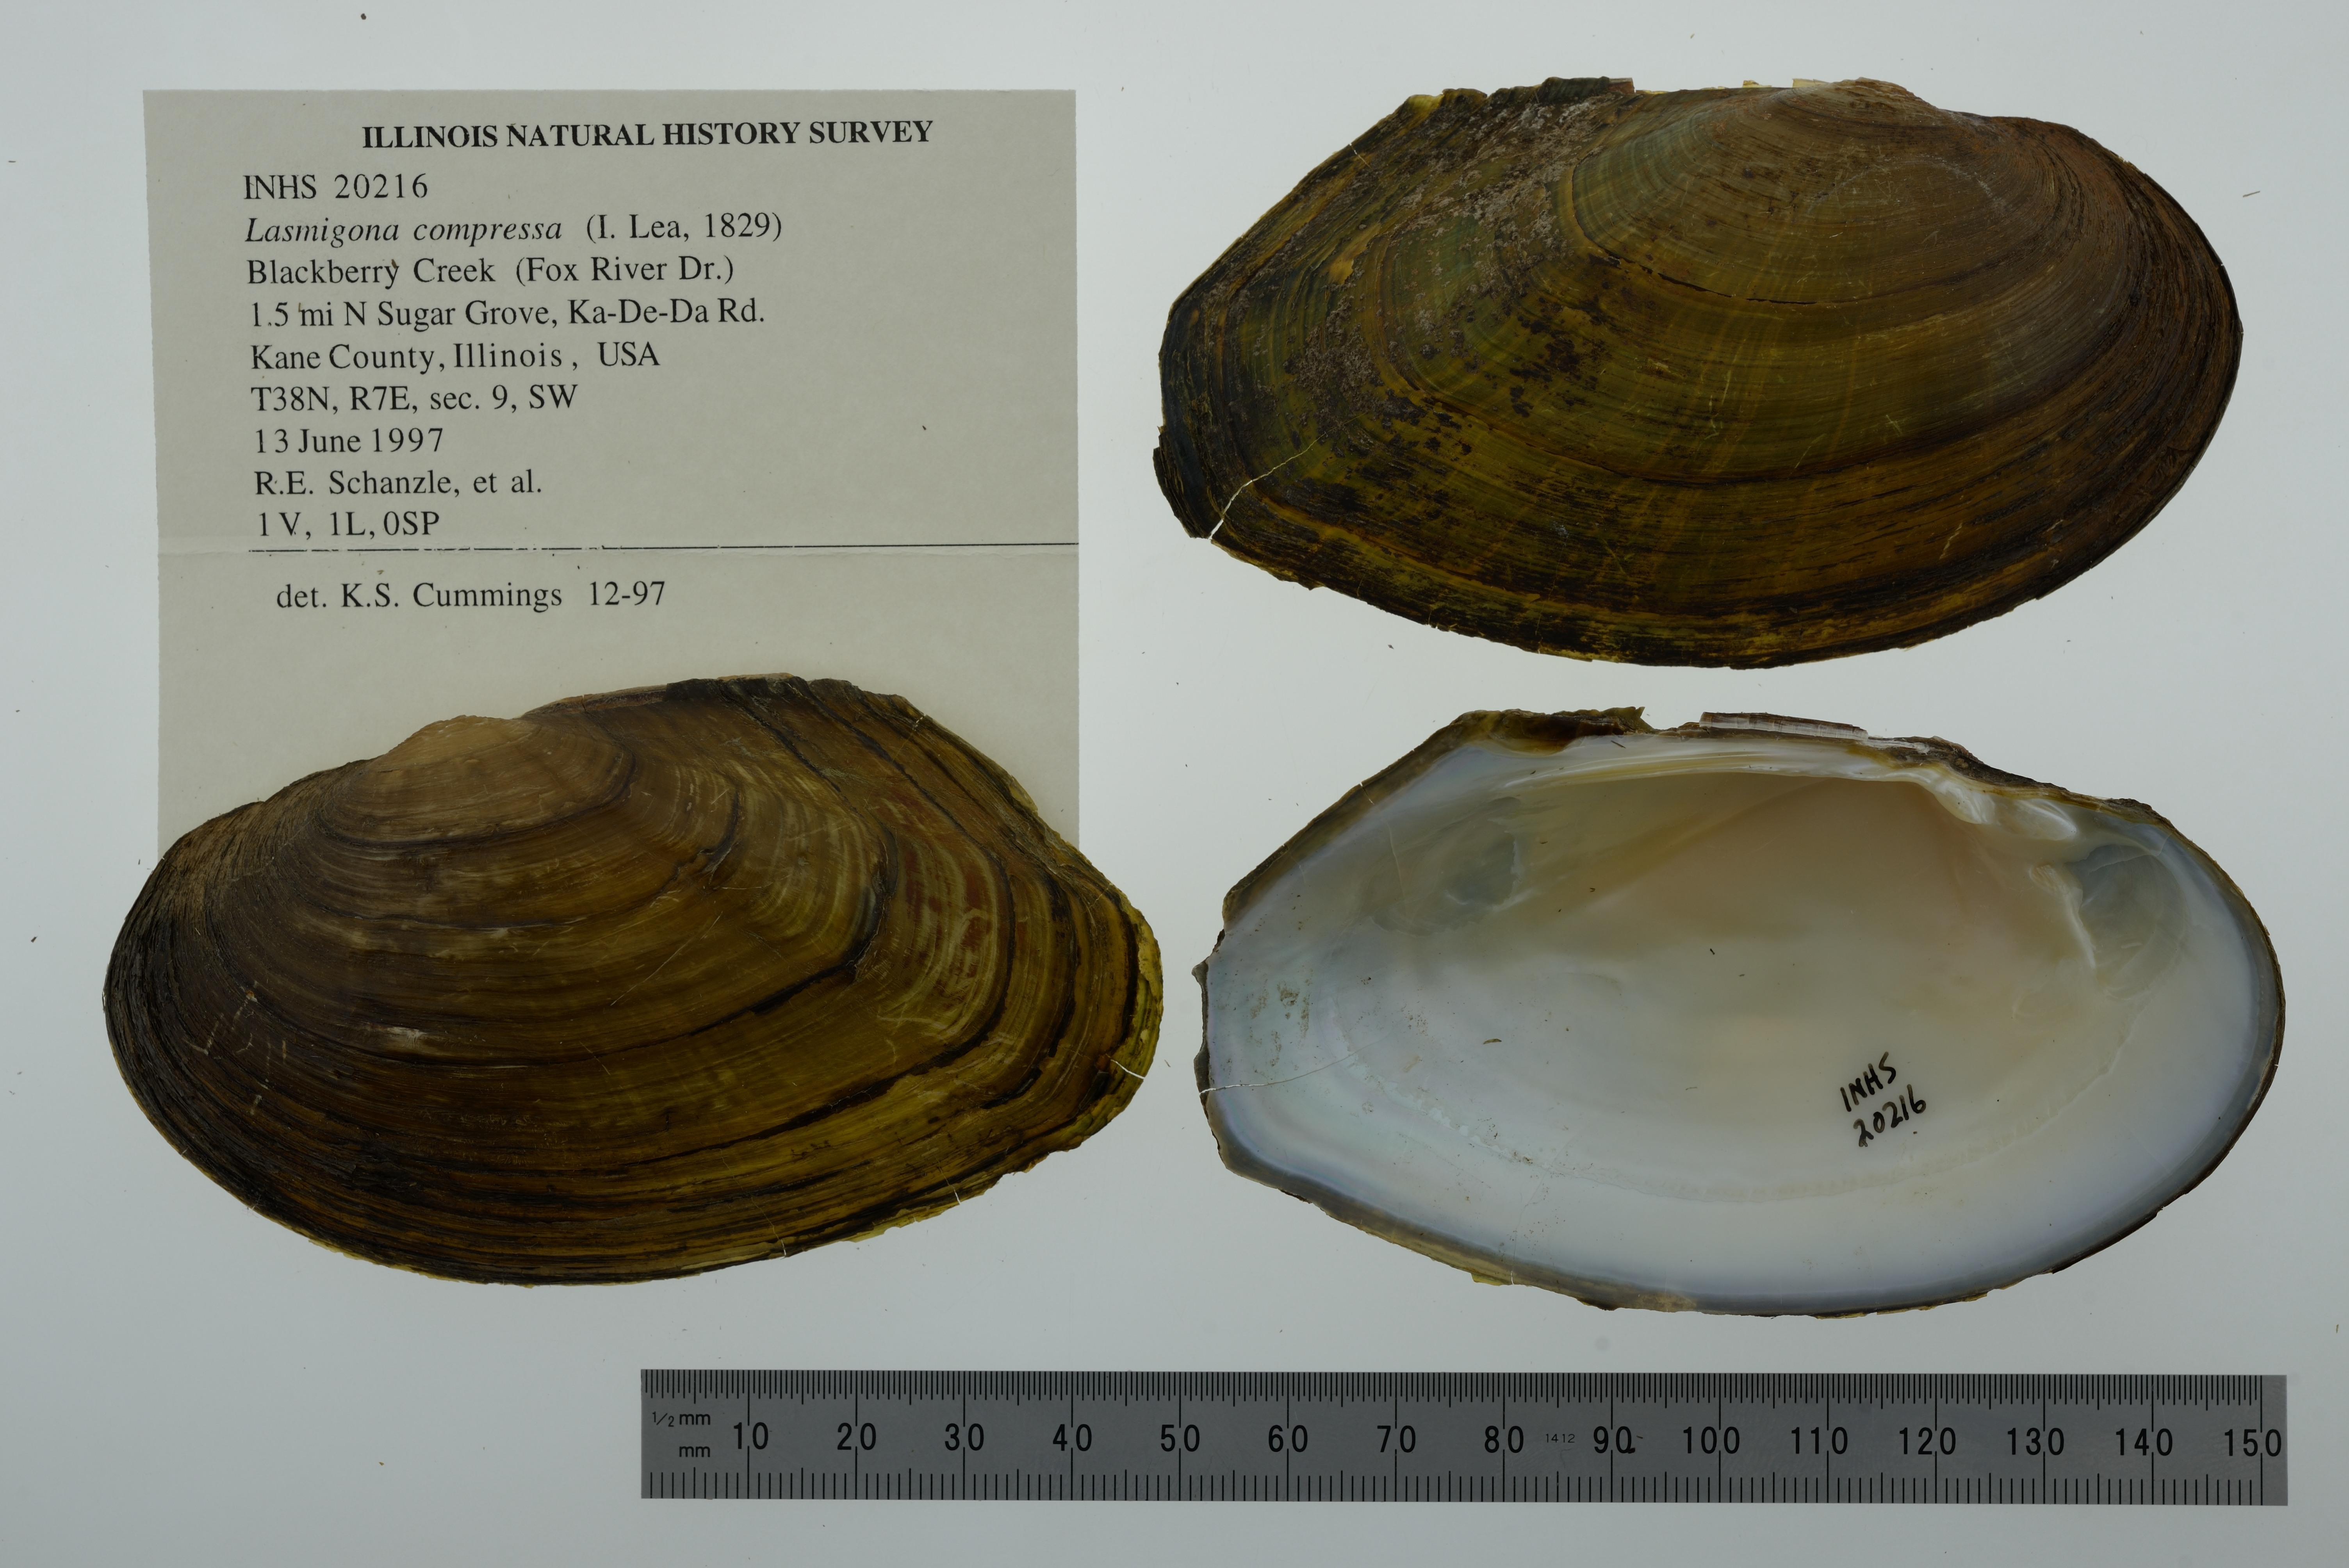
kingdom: Animalia
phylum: Mollusca
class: Bivalvia
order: Unionida
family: Unionidae
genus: Lasmigona
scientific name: Lasmigona compressa
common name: Creek heelsplitter
